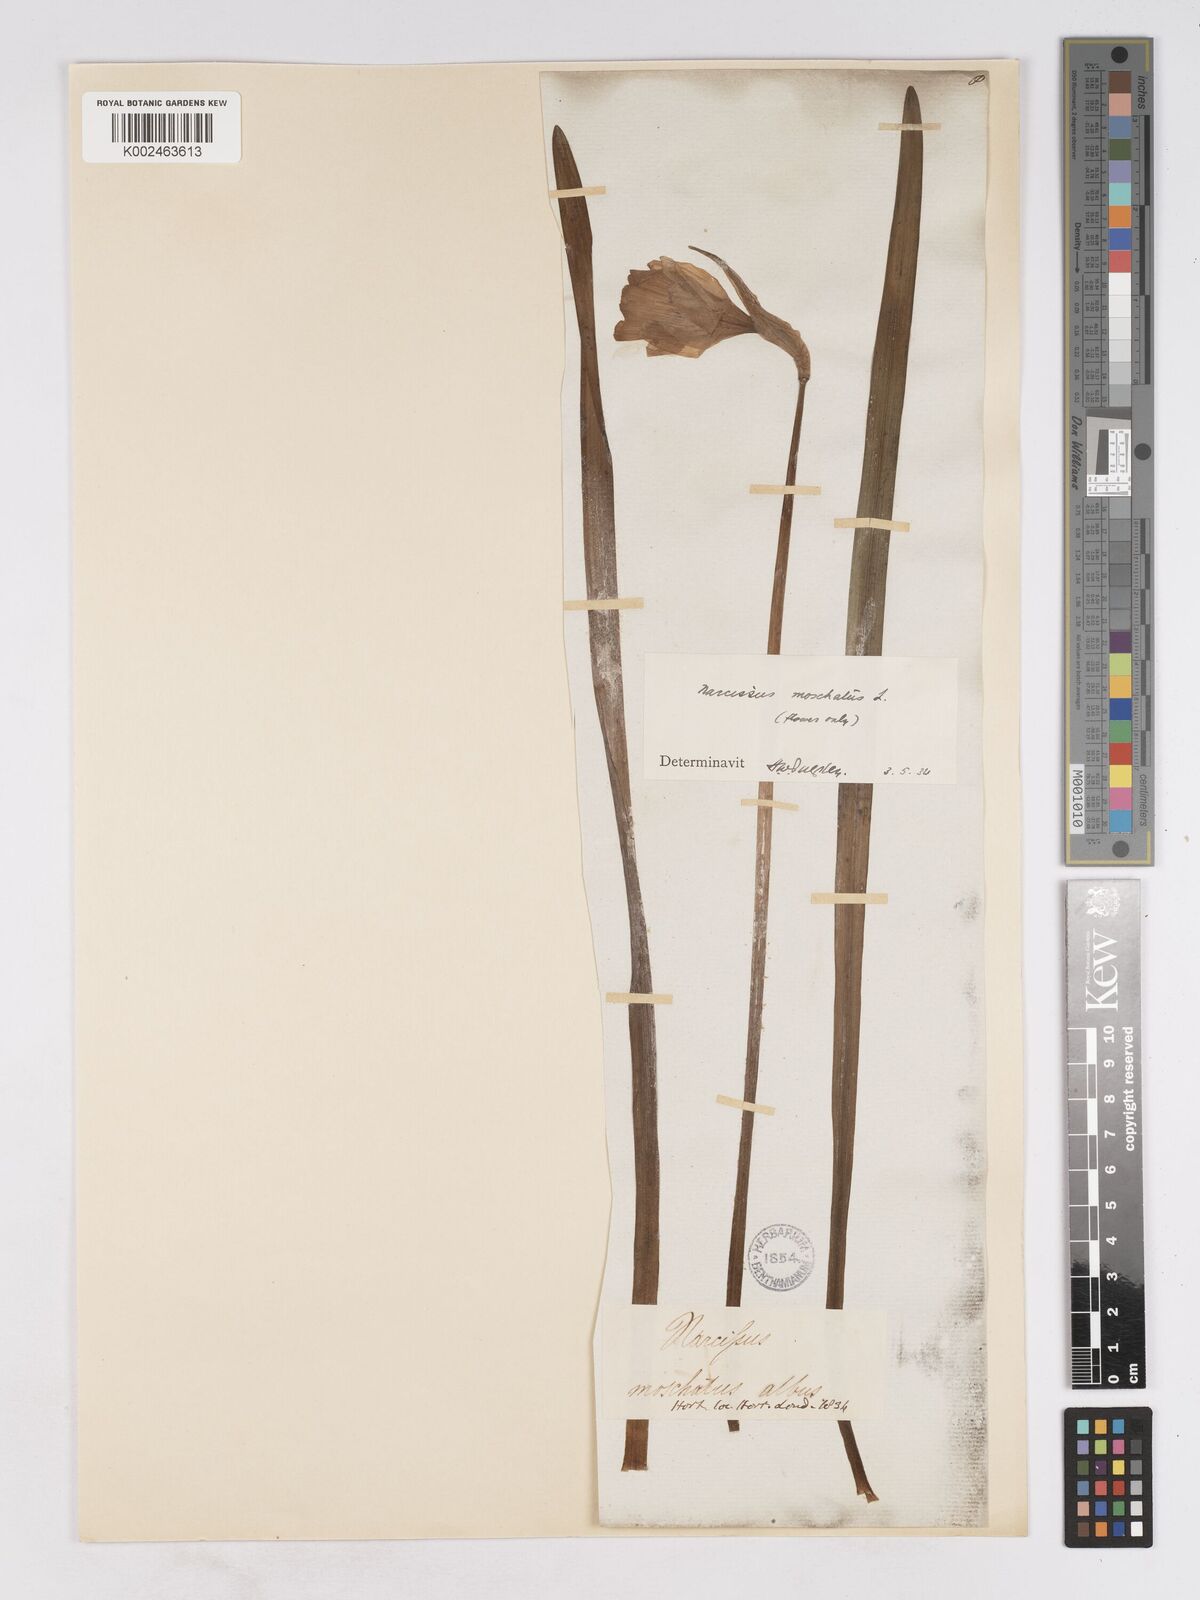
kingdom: Plantae
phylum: Tracheophyta
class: Liliopsida
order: Asparagales
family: Amaryllidaceae
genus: Narcissus
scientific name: Narcissus moschatus
